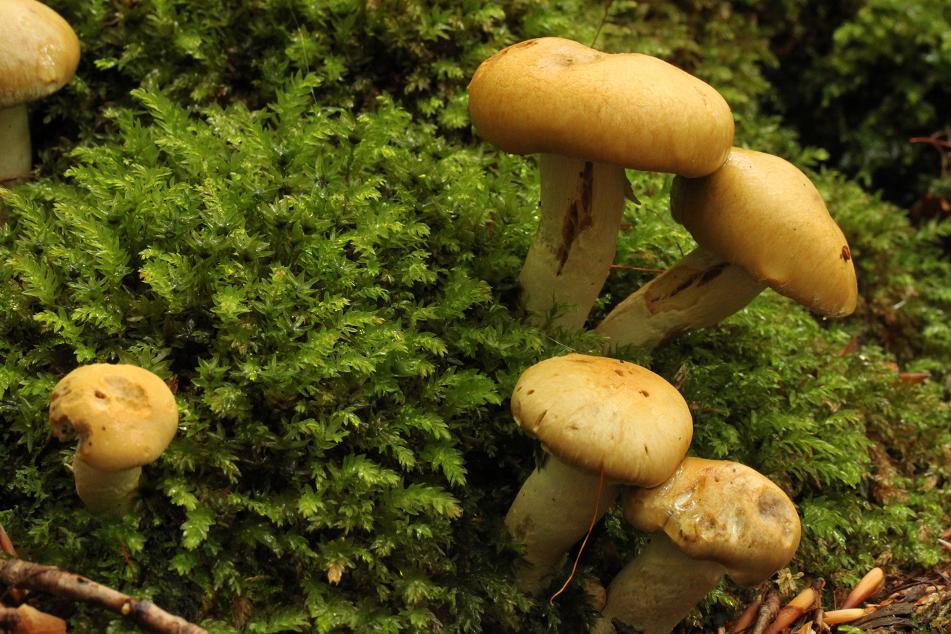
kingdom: Fungi
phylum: Basidiomycota
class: Agaricomycetes
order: Agaricales
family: Cortinariaceae
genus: Cortinarius
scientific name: Cortinarius subtortus
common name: olivengul slørhat
